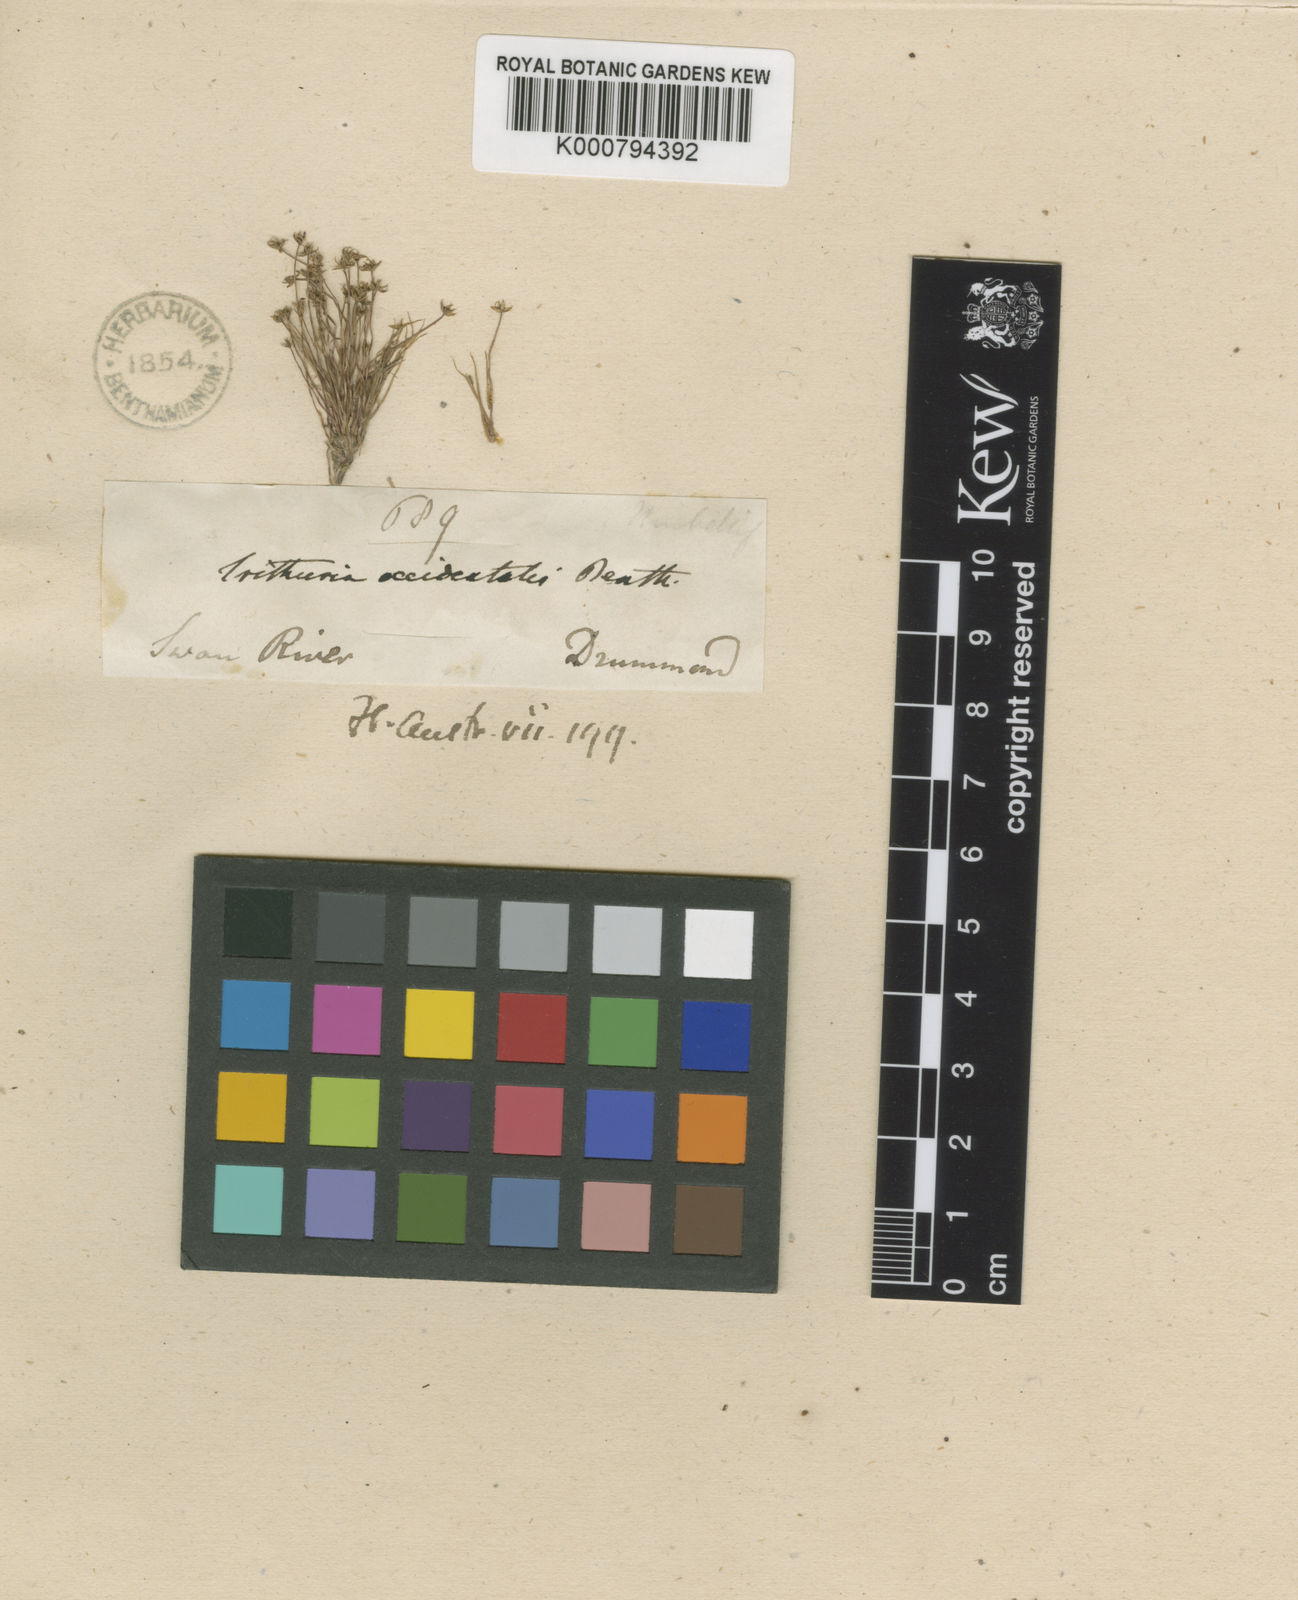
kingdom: Plantae
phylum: Tracheophyta
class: Magnoliopsida
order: Nymphaeales
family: Hydatellaceae
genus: Trithuria
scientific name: Trithuria occidentalis
